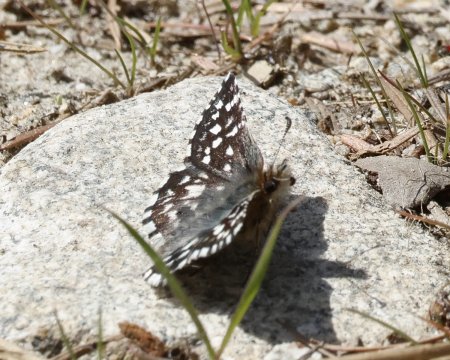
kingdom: Animalia
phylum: Arthropoda
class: Insecta
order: Lepidoptera
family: Hesperiidae
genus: Pyrgus
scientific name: Pyrgus ruralis
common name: Two-banded Checkered-Skipper
